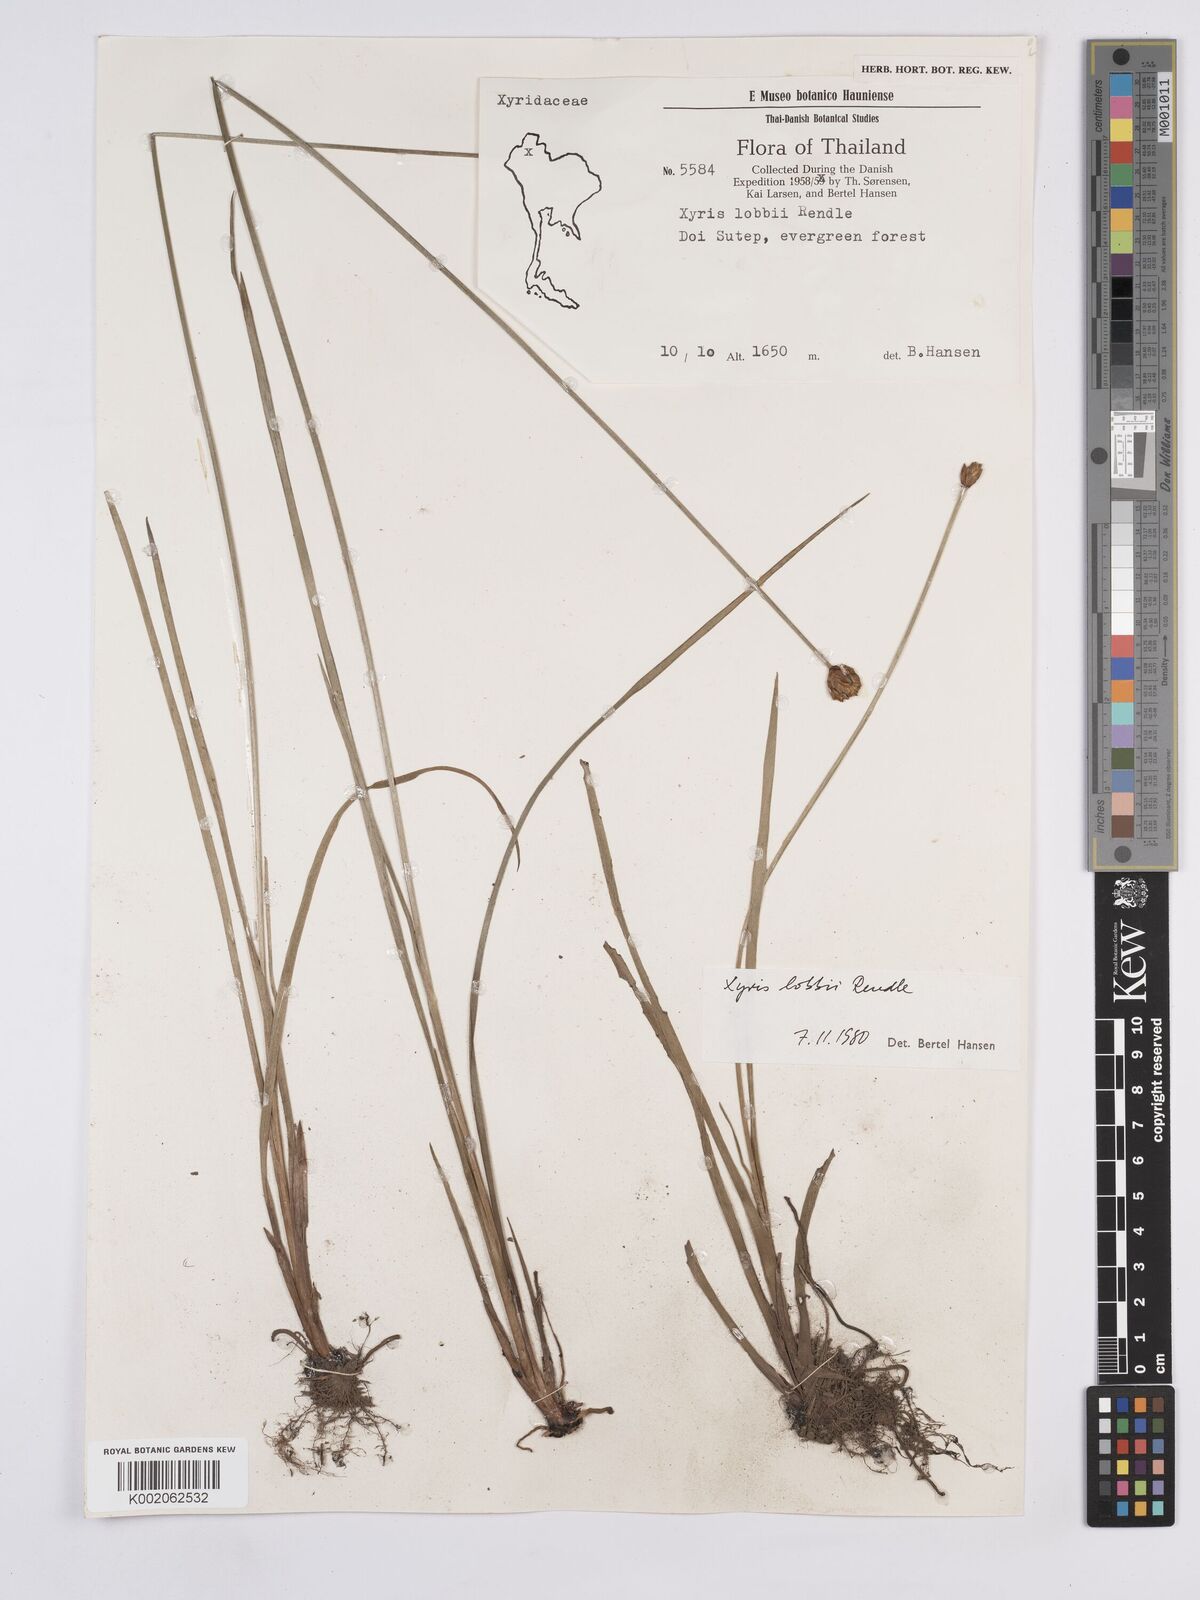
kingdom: Plantae
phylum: Tracheophyta
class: Liliopsida
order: Poales
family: Xyridaceae
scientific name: Xyridaceae
